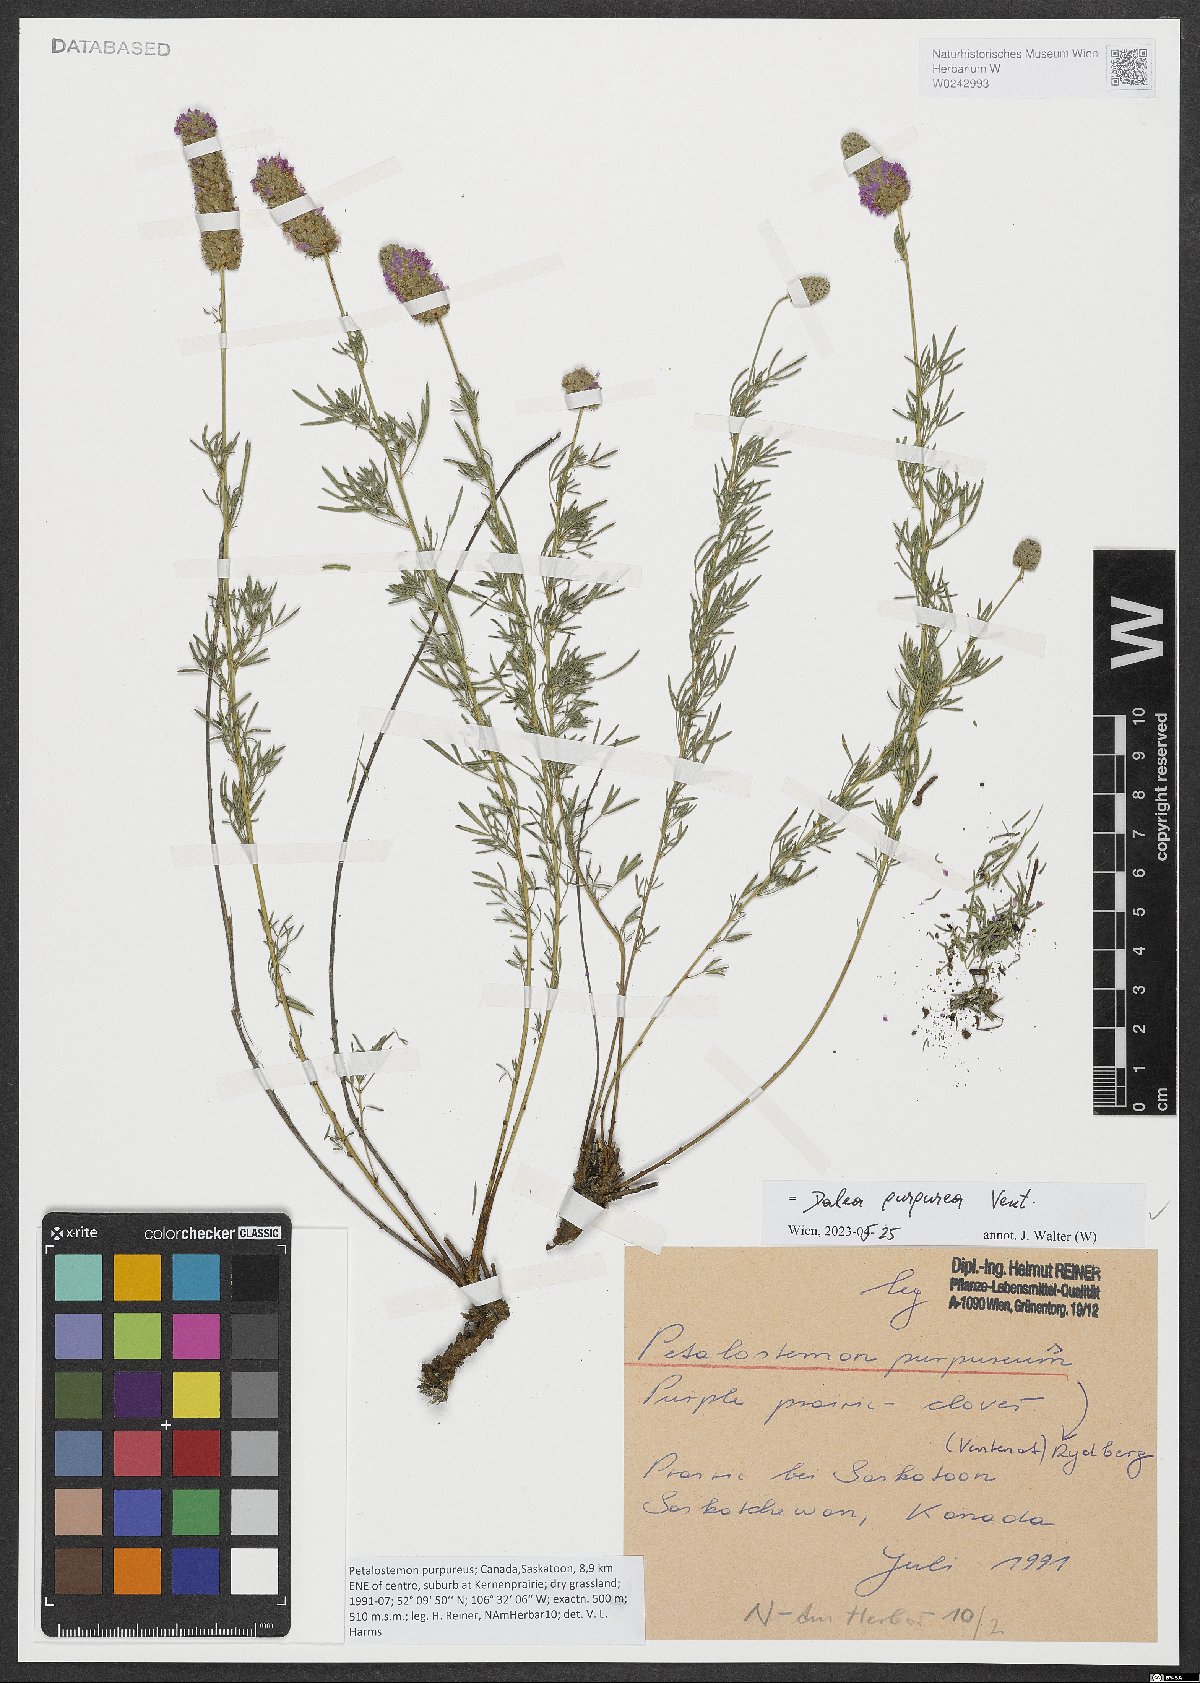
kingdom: Plantae
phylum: Tracheophyta
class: Magnoliopsida
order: Fabales
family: Fabaceae
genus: Dalea
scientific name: Dalea purpurea
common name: Purple prairie-clover
